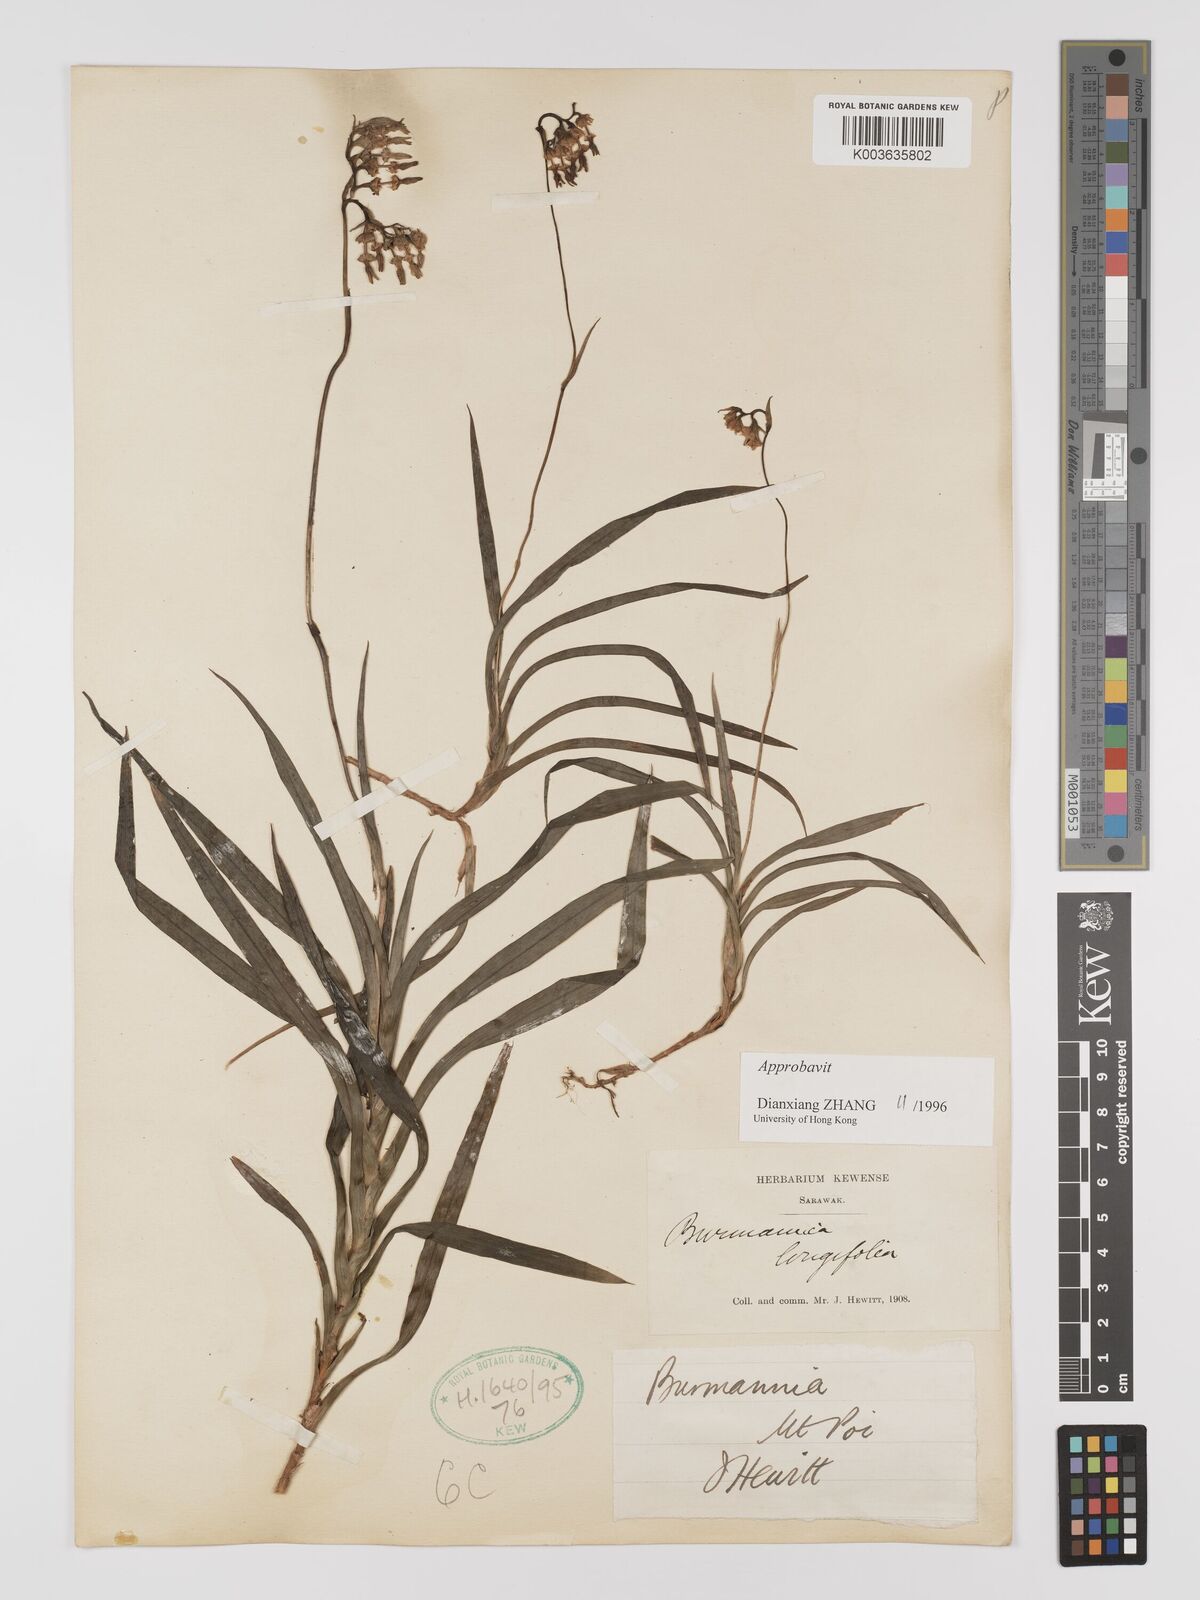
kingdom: Plantae
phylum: Tracheophyta
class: Liliopsida
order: Dioscoreales
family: Burmanniaceae
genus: Burmannia
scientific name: Burmannia longifolia
